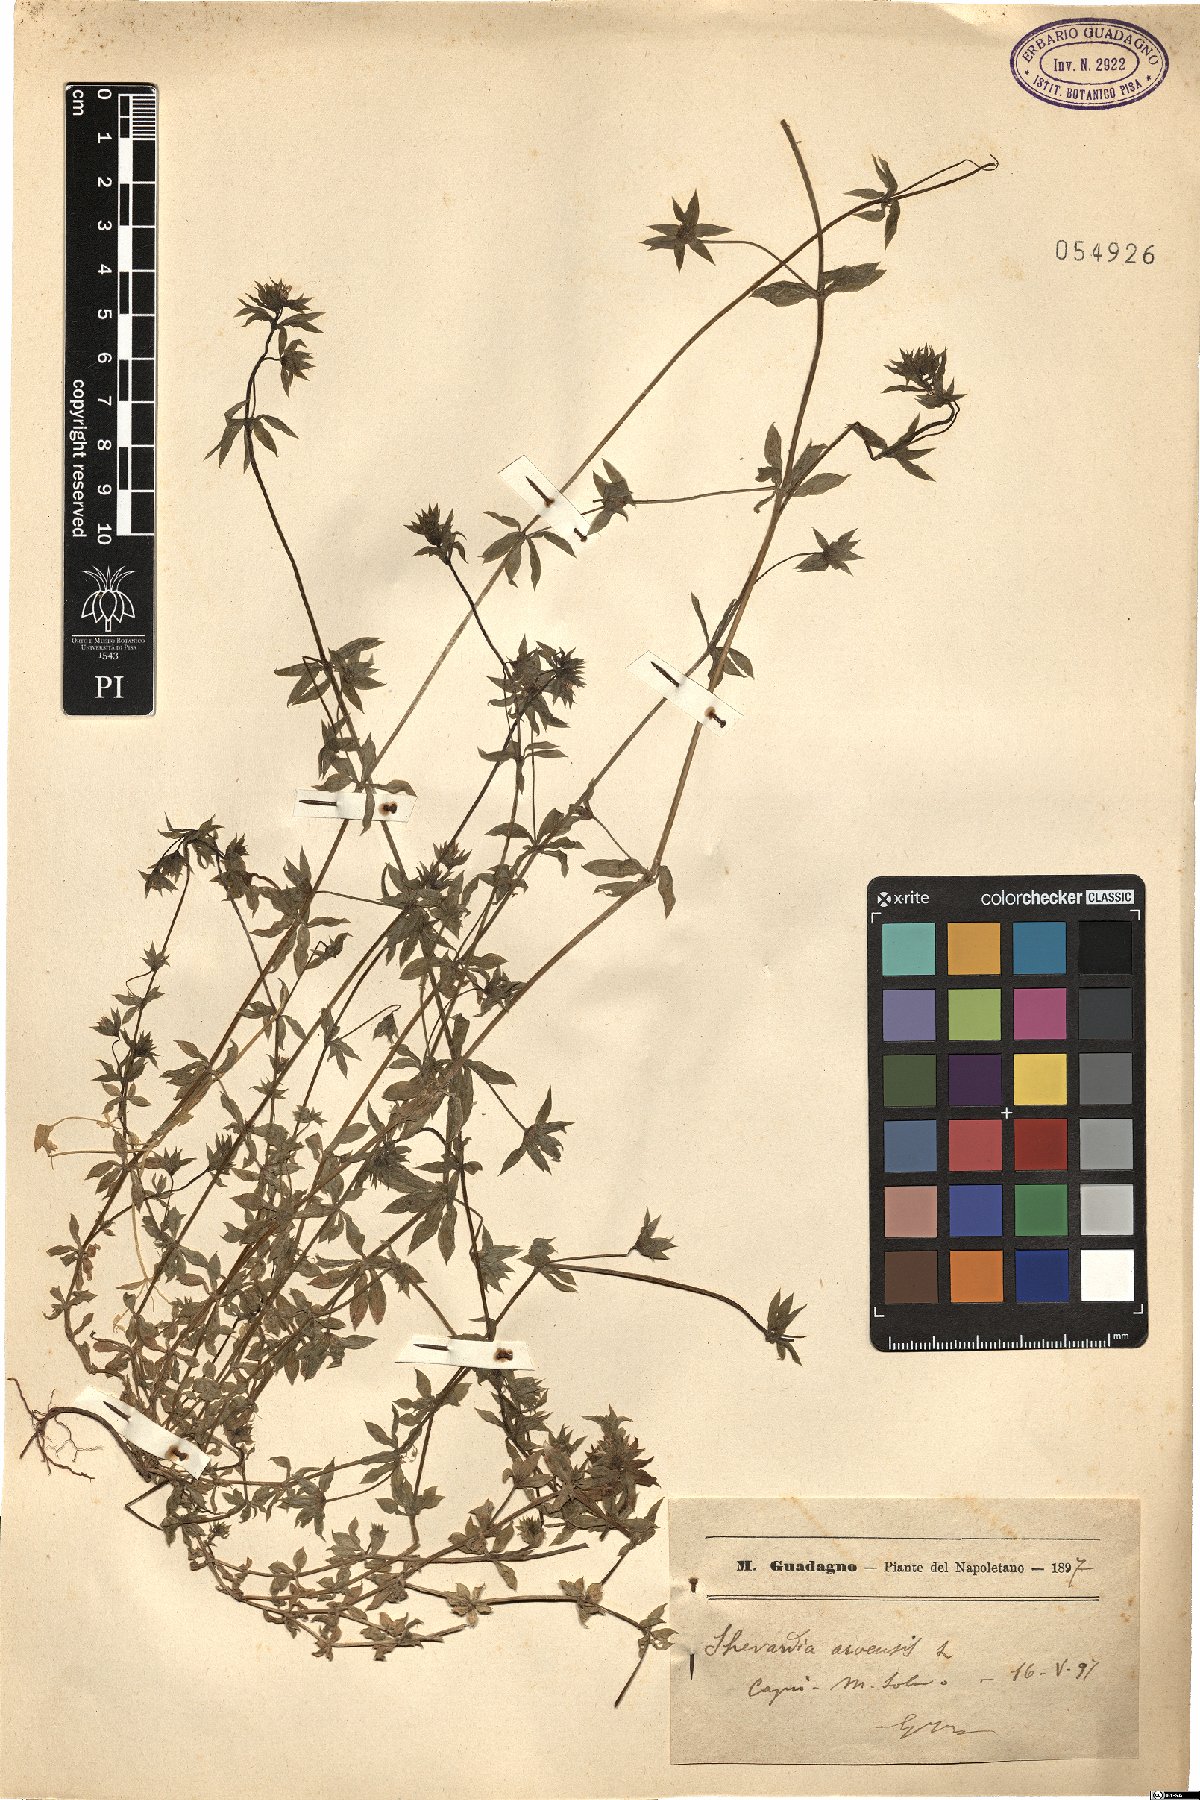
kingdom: Plantae
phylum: Tracheophyta
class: Magnoliopsida
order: Gentianales
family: Rubiaceae
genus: Sherardia
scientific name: Sherardia arvensis
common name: Field madder
